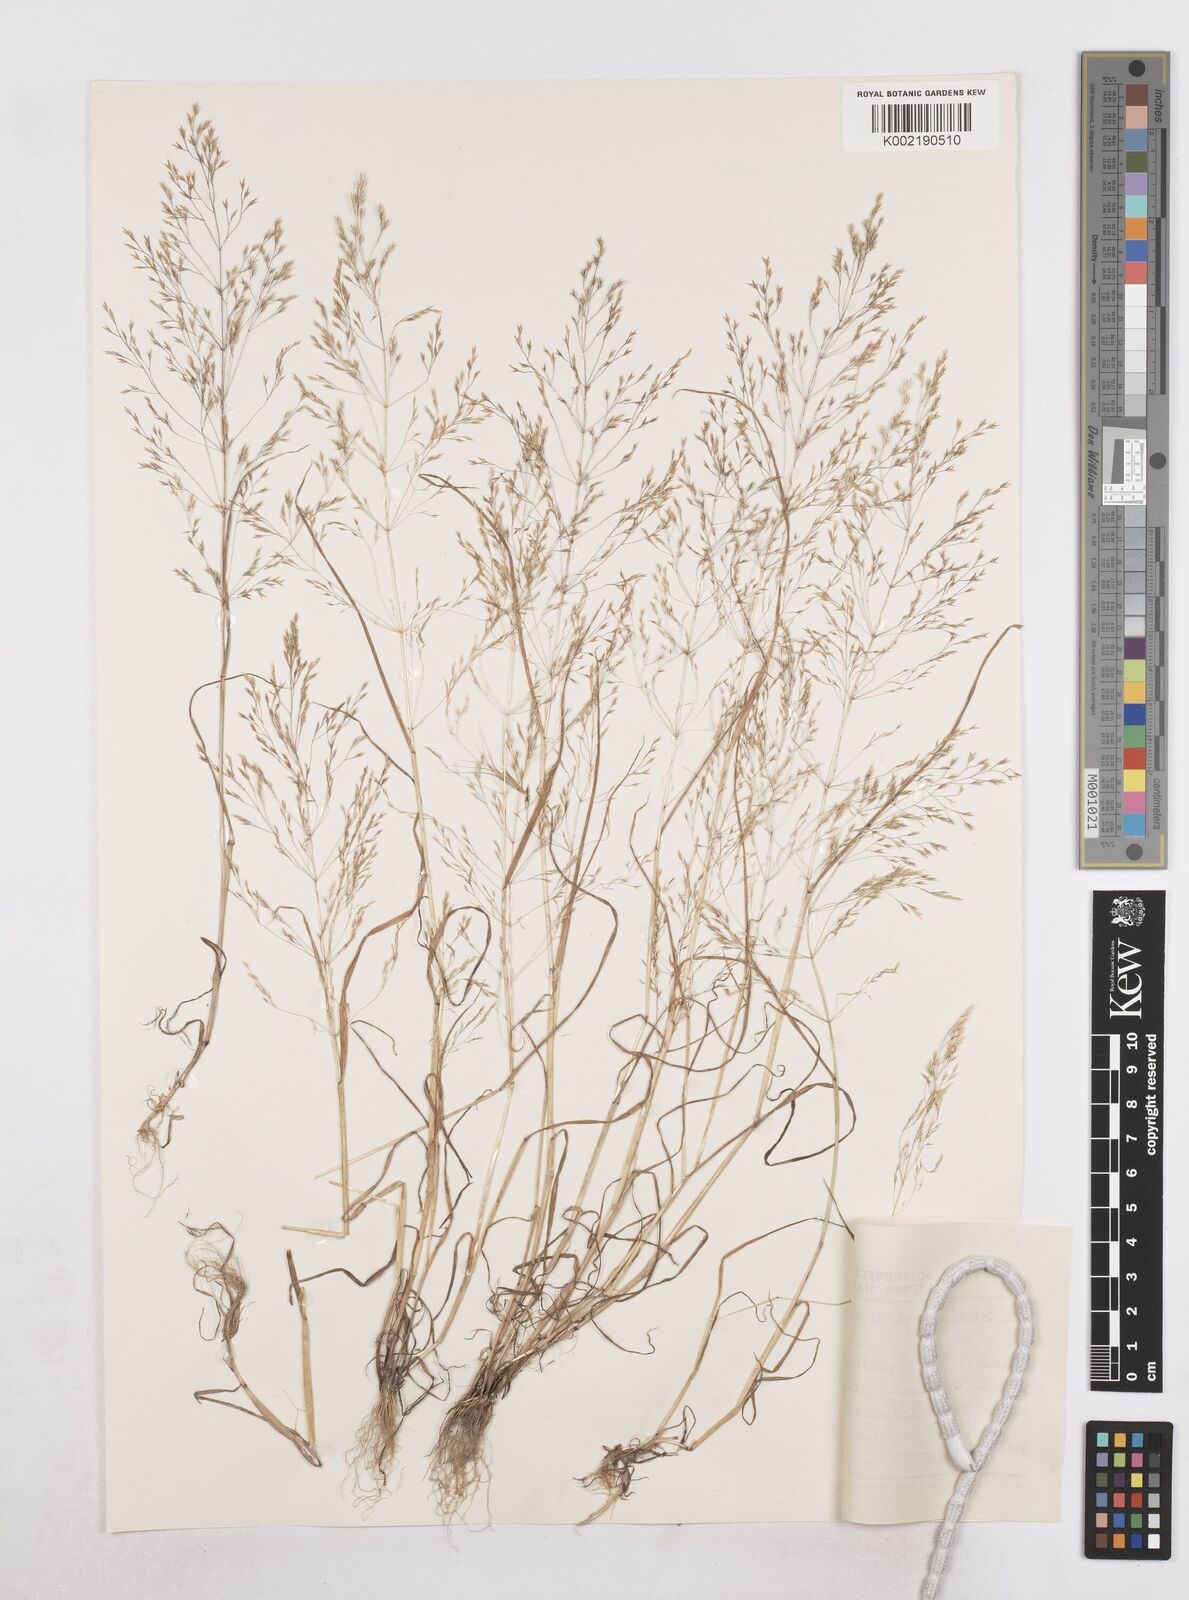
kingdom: Plantae
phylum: Tracheophyta
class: Liliopsida
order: Poales
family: Poaceae
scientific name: Poaceae
